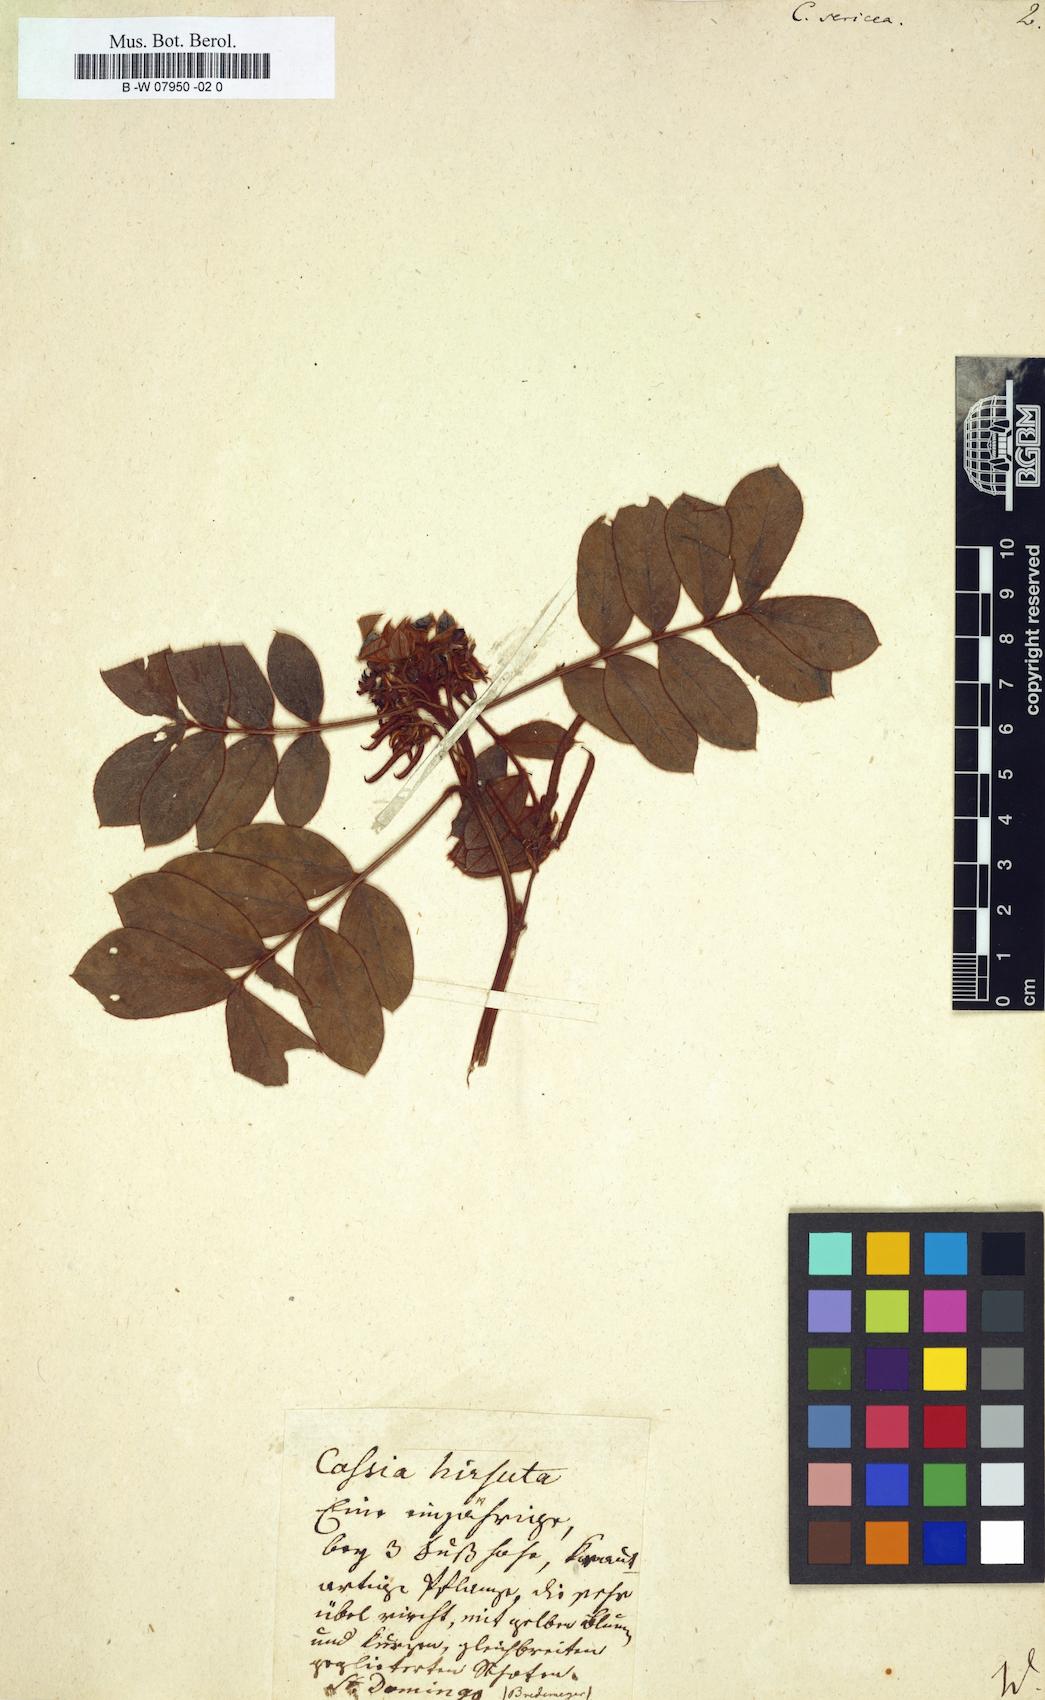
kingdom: Plantae
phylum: Tracheophyta
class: Magnoliopsida
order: Fabales
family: Fabaceae
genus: Senna
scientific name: Senna uniflora
